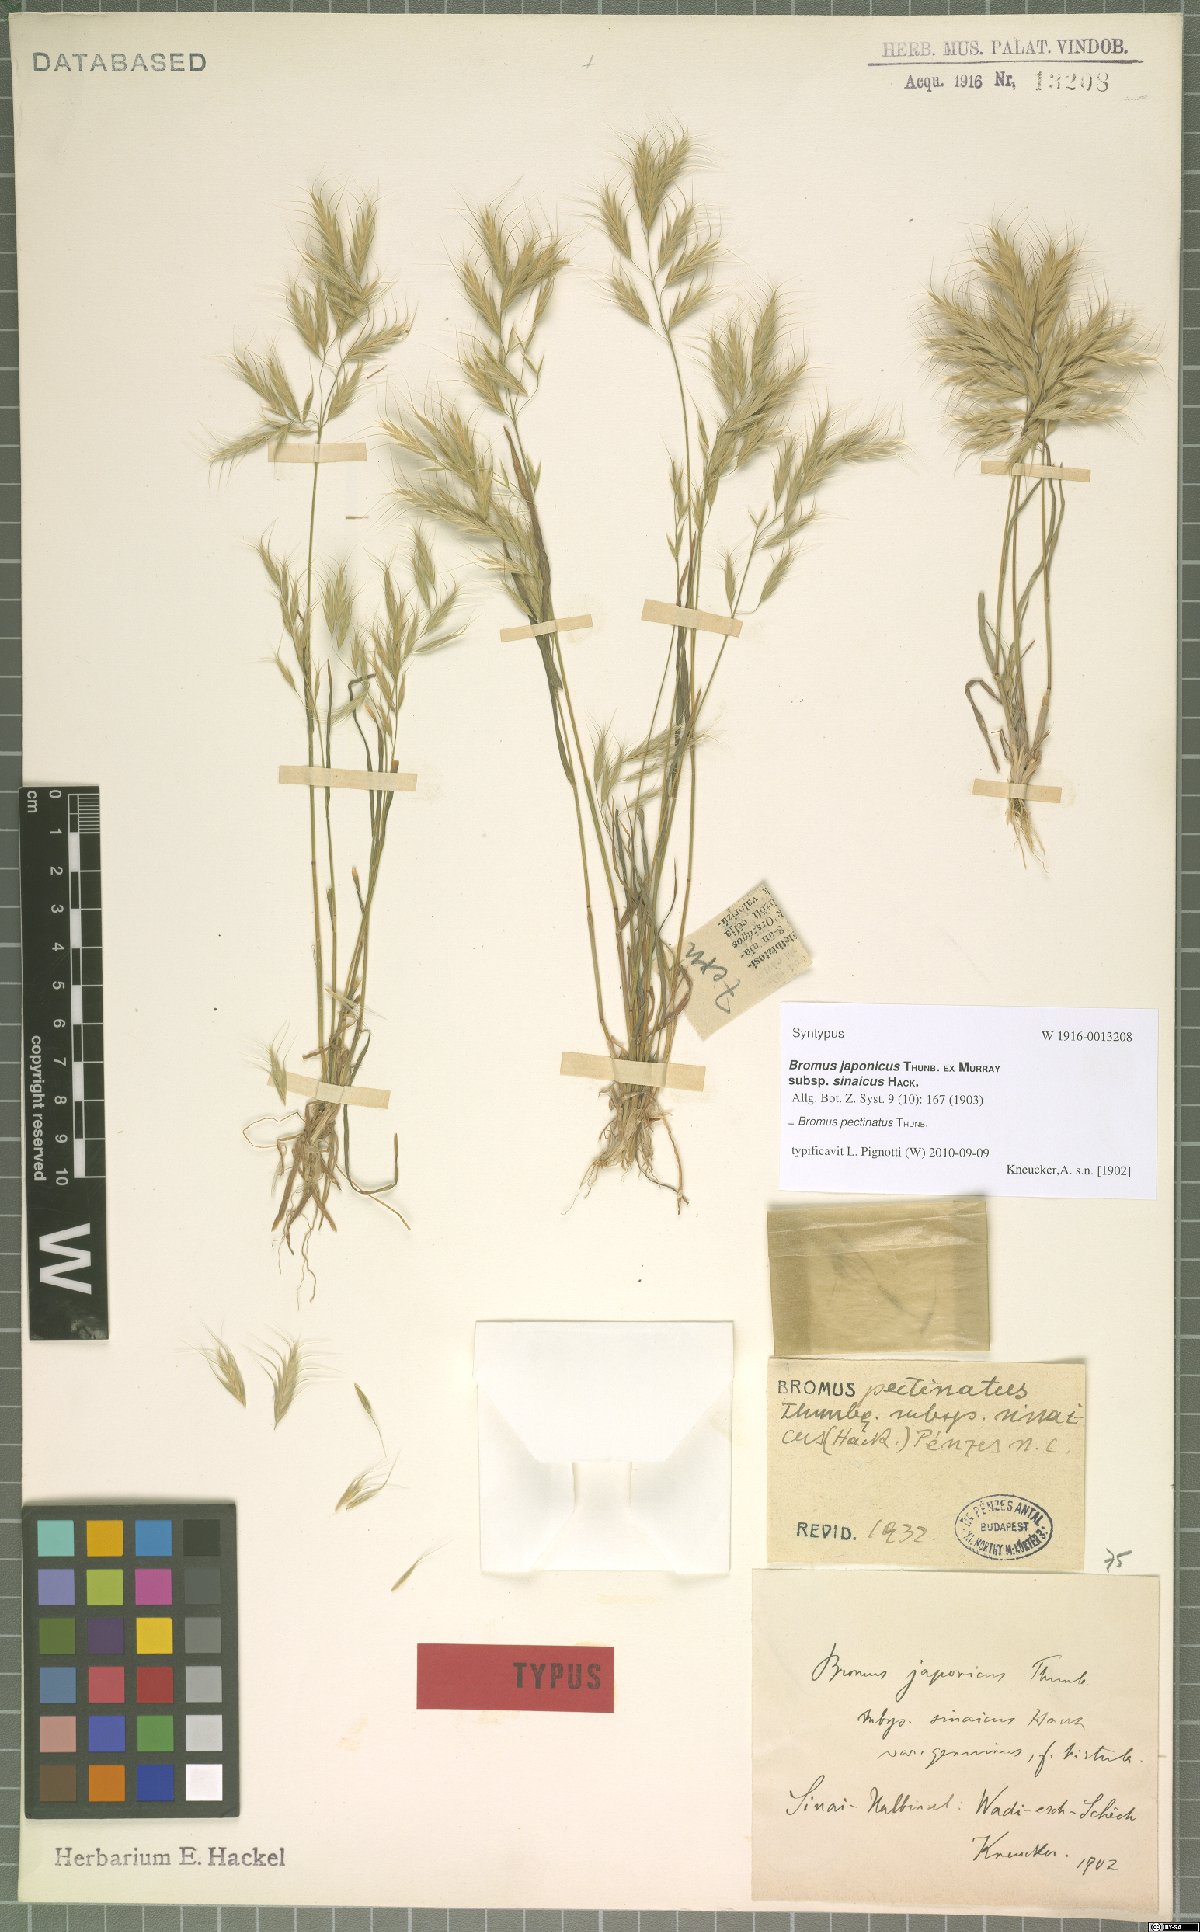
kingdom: Plantae
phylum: Tracheophyta
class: Liliopsida
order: Poales
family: Poaceae
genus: Bromus
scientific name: Bromus pectinatus
